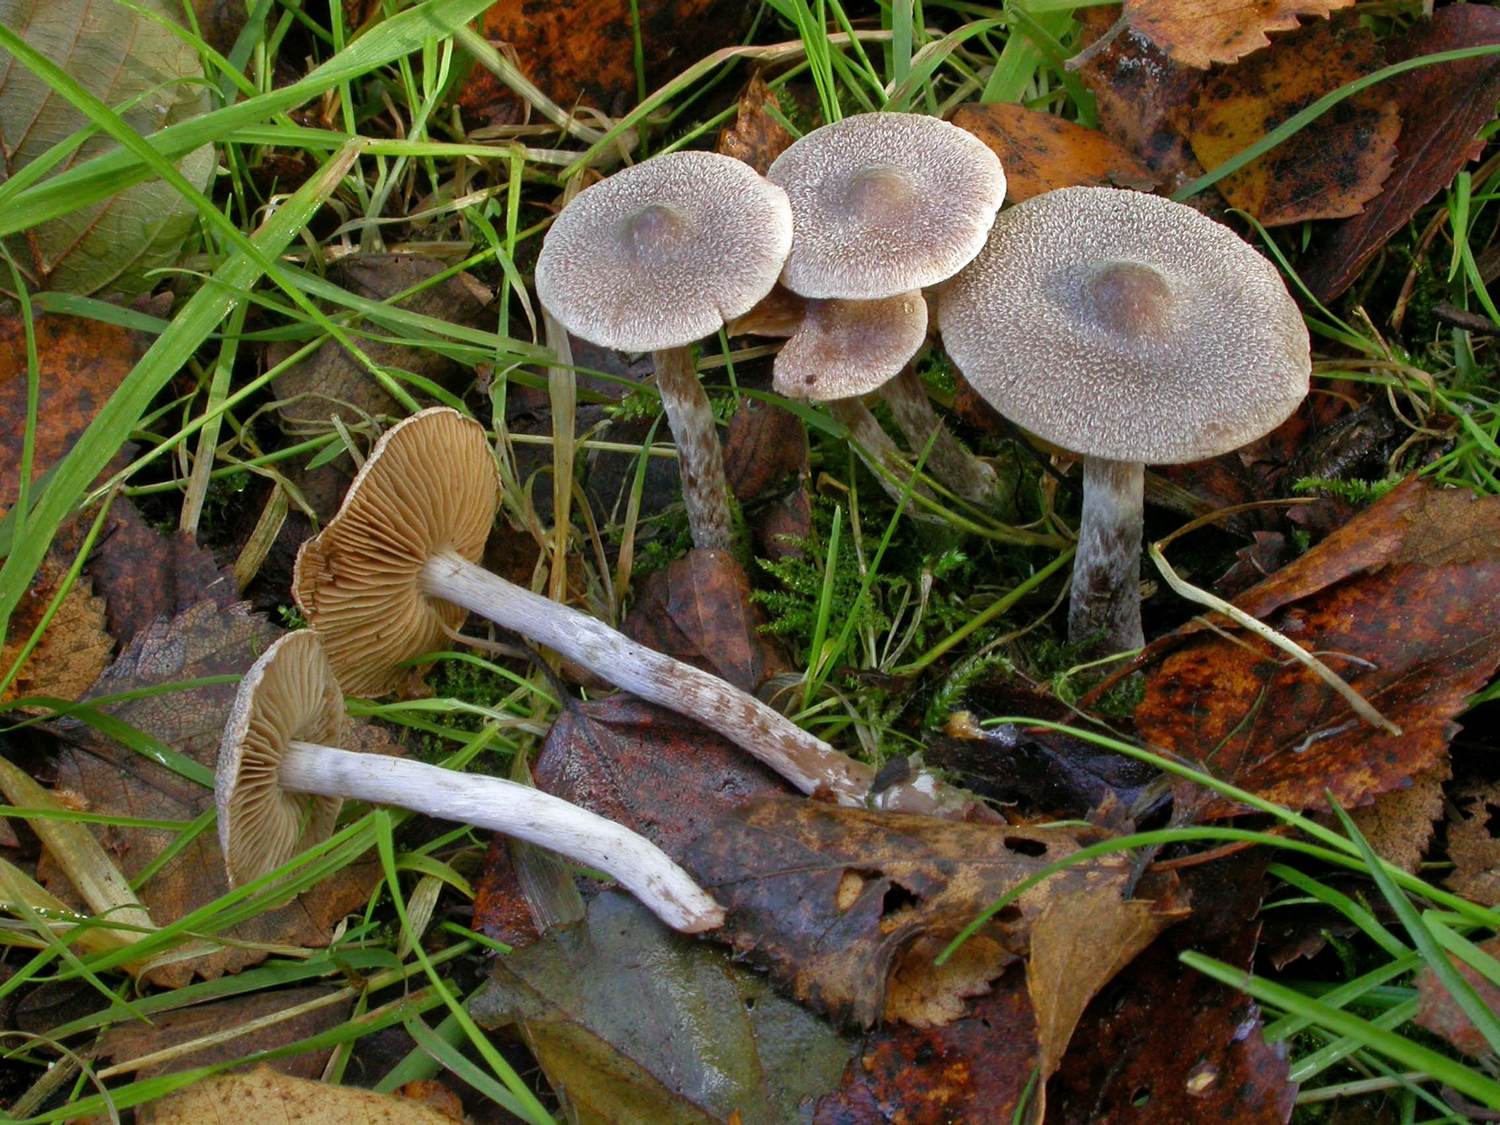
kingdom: Fungi
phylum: Basidiomycota
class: Agaricomycetes
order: Agaricales
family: Cortinariaceae
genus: Cortinarius
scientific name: Cortinarius
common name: pelargonie-slørhat
